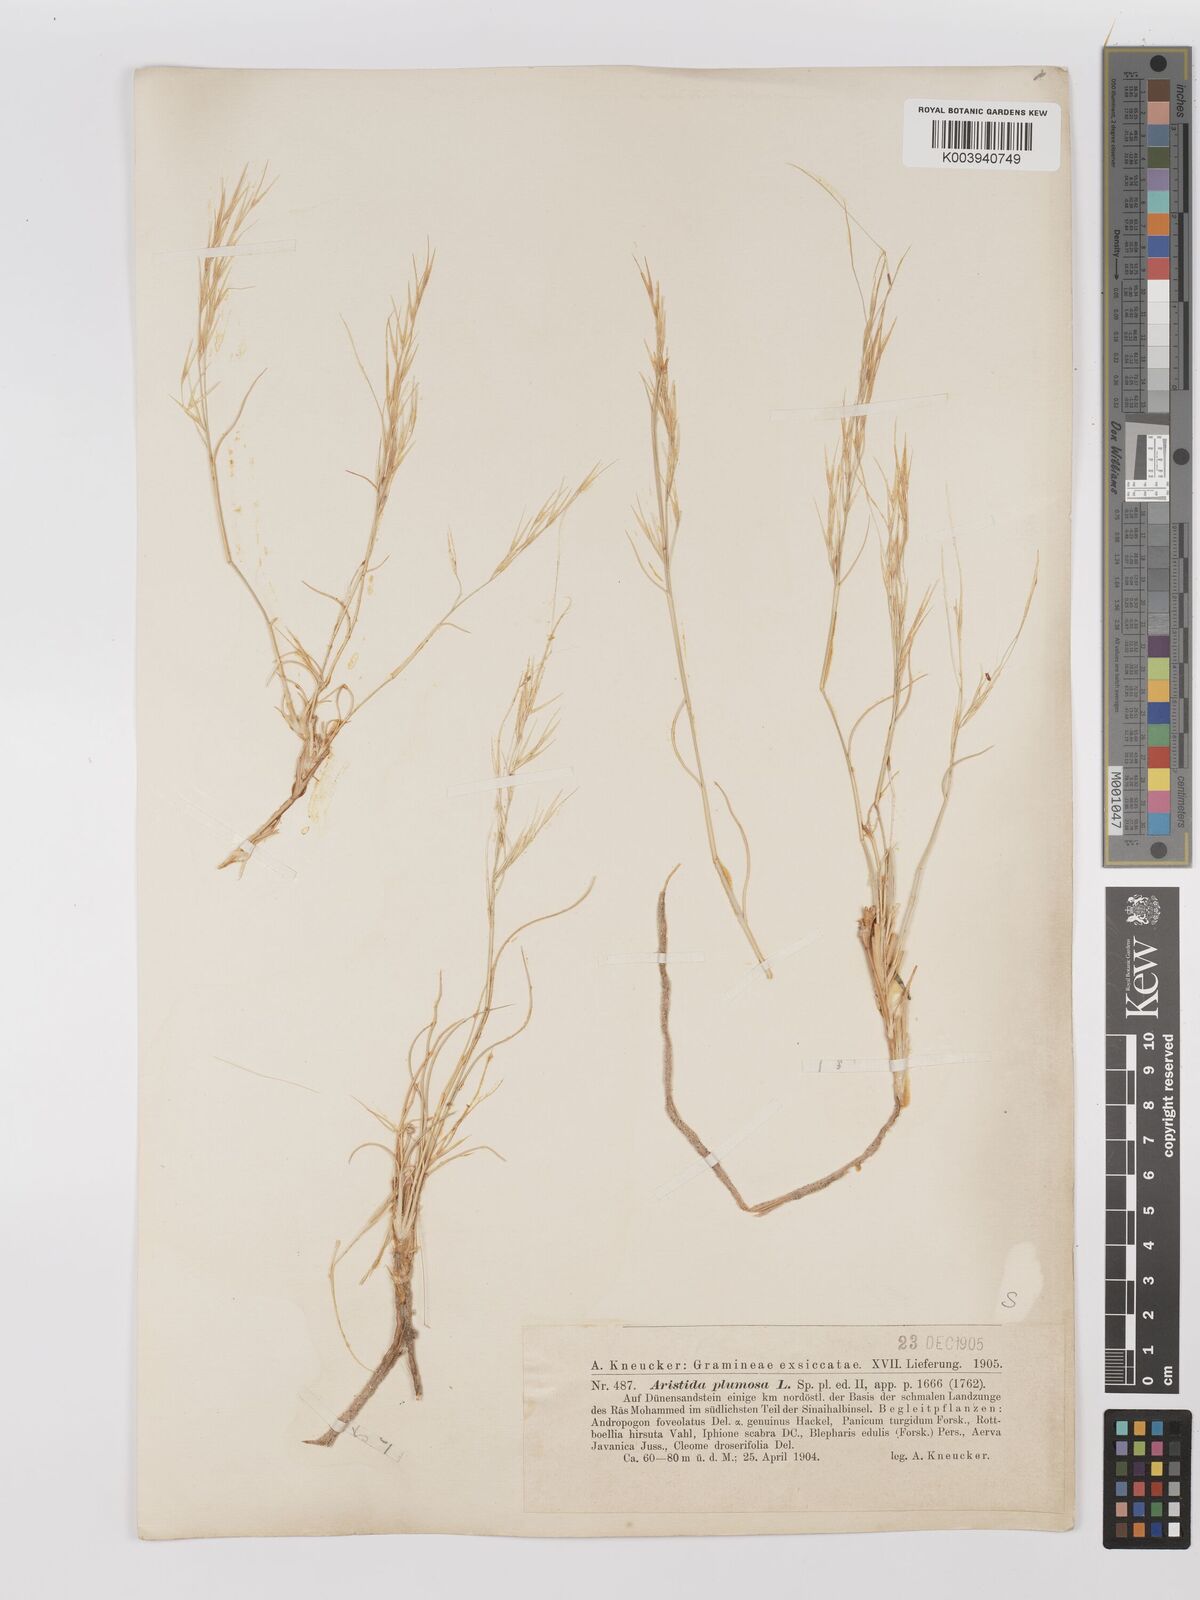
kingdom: Plantae
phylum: Tracheophyta
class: Liliopsida
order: Poales
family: Poaceae
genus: Stipagrostis
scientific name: Stipagrostis plumosa
